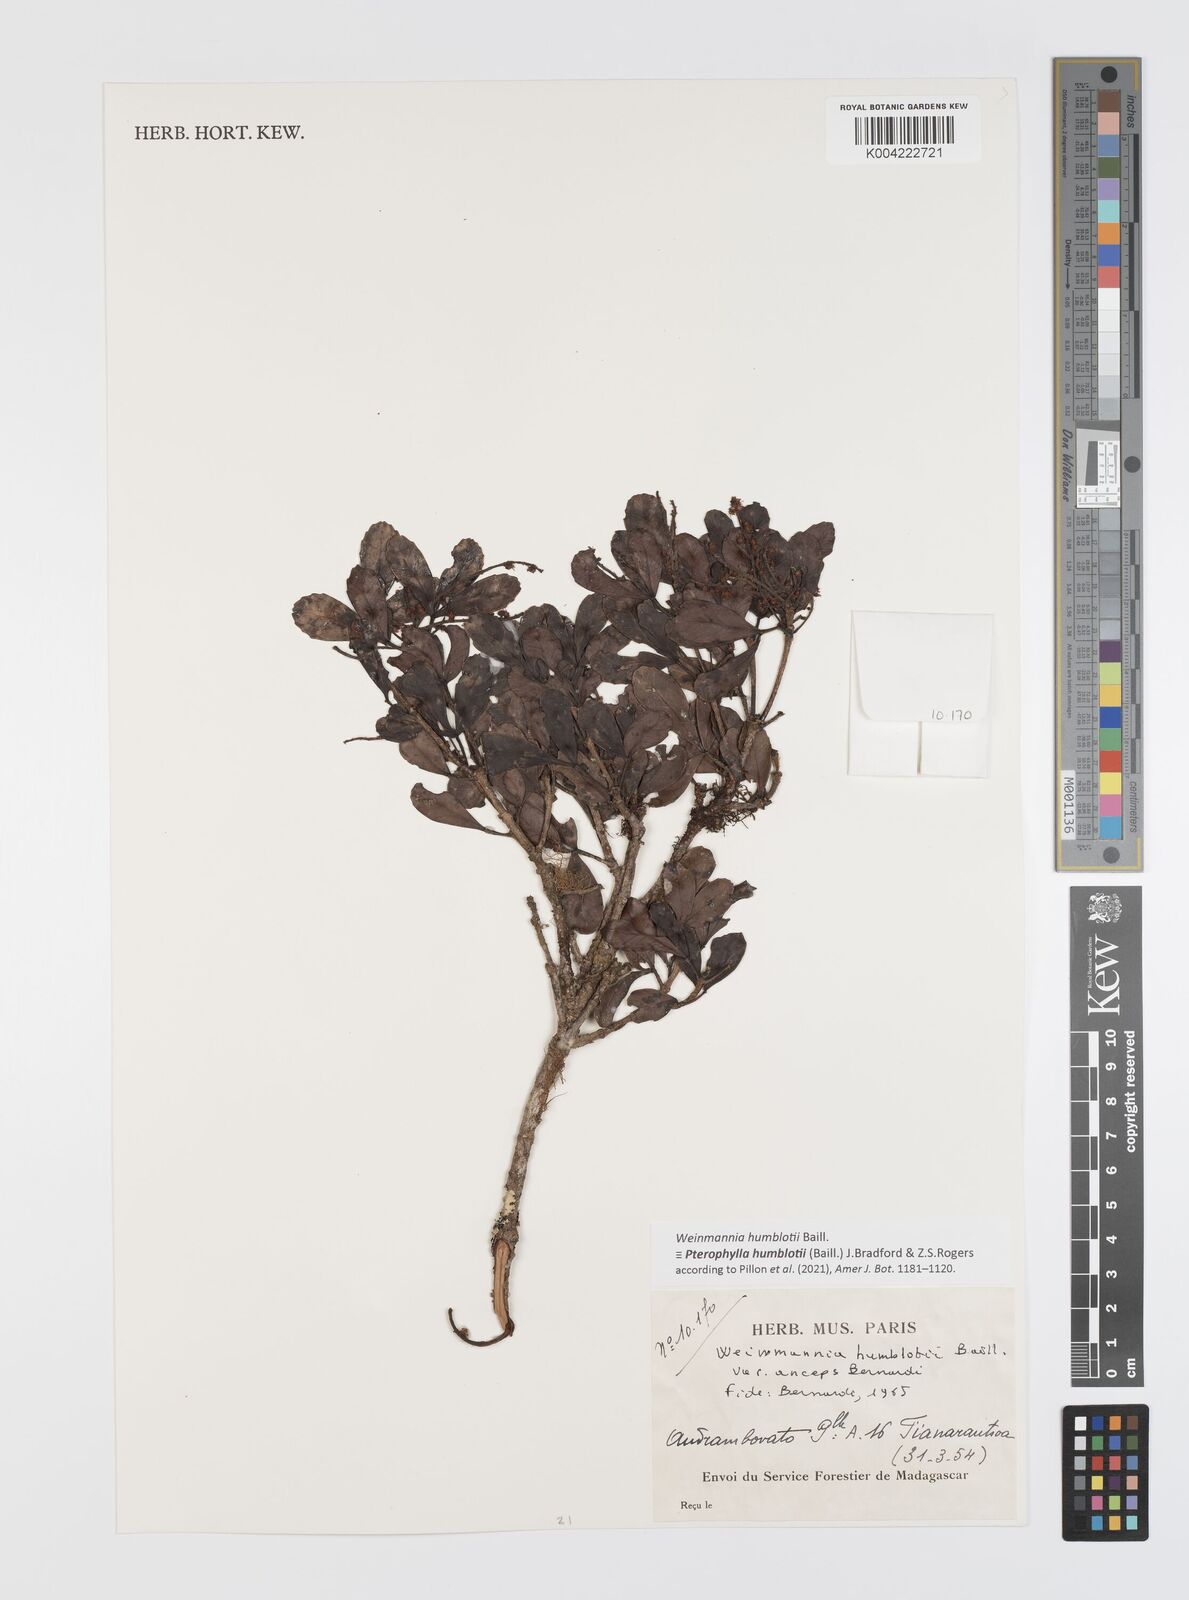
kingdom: Plantae
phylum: Tracheophyta
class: Magnoliopsida
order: Oxalidales
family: Cunoniaceae
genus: Pterophylla
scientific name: Pterophylla
